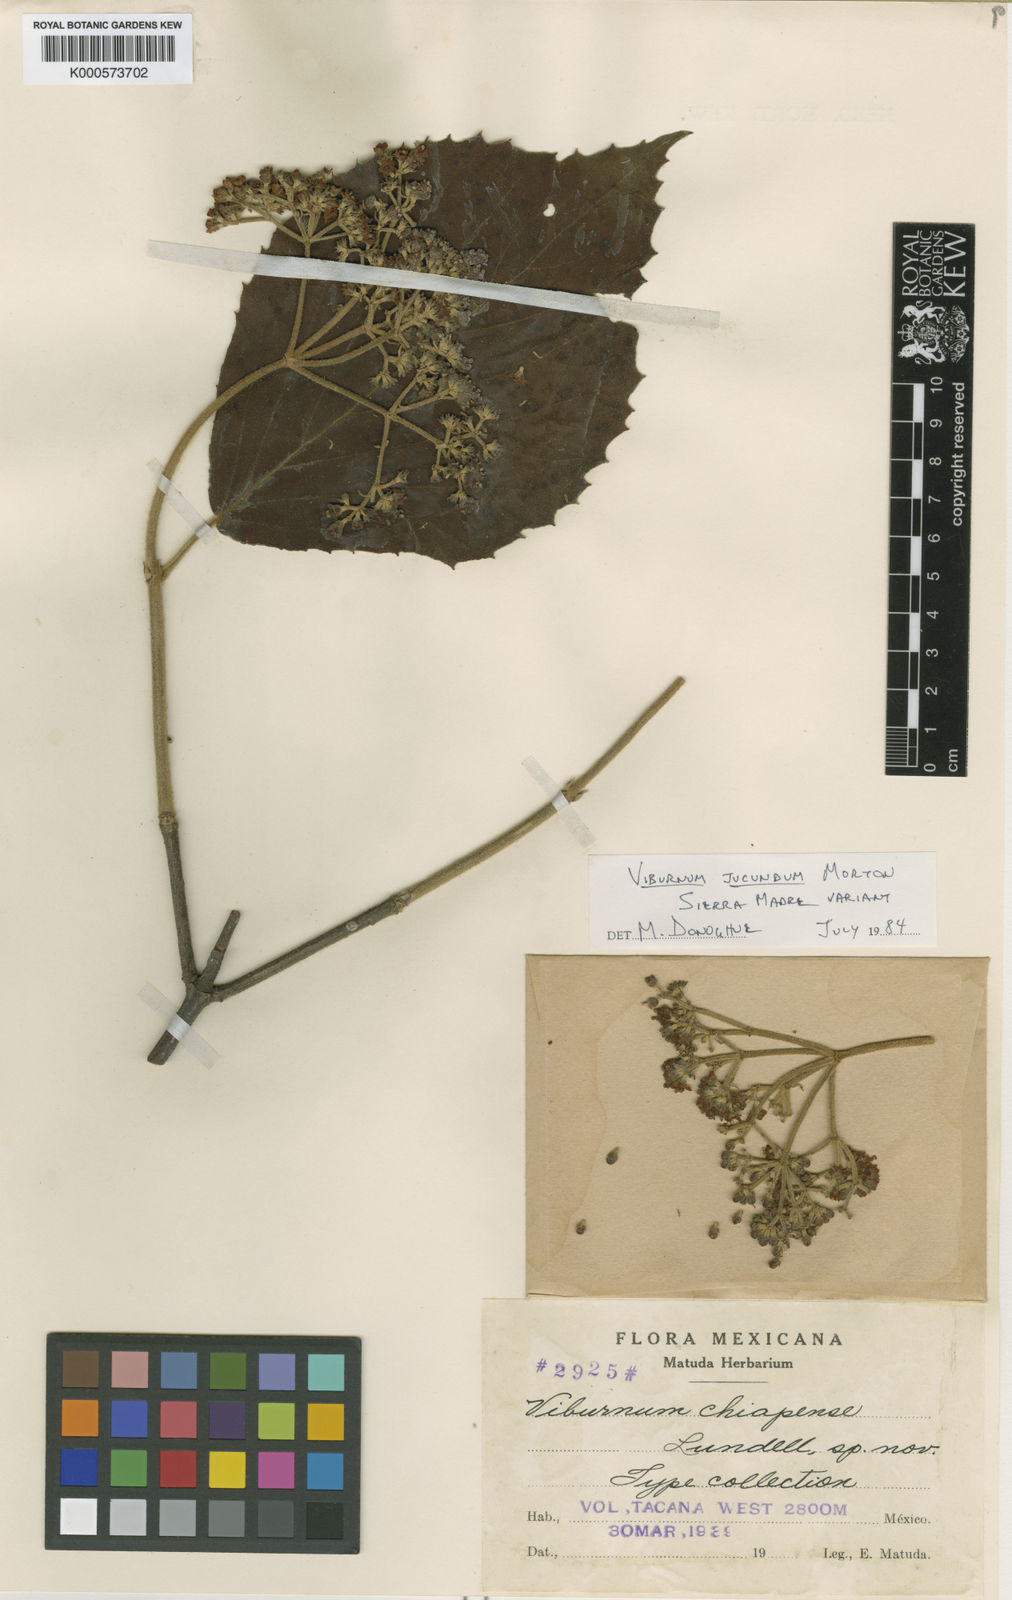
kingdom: Plantae
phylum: Tracheophyta
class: Magnoliopsida
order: Dipsacales
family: Viburnaceae
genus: Viburnum
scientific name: Viburnum jucundum
